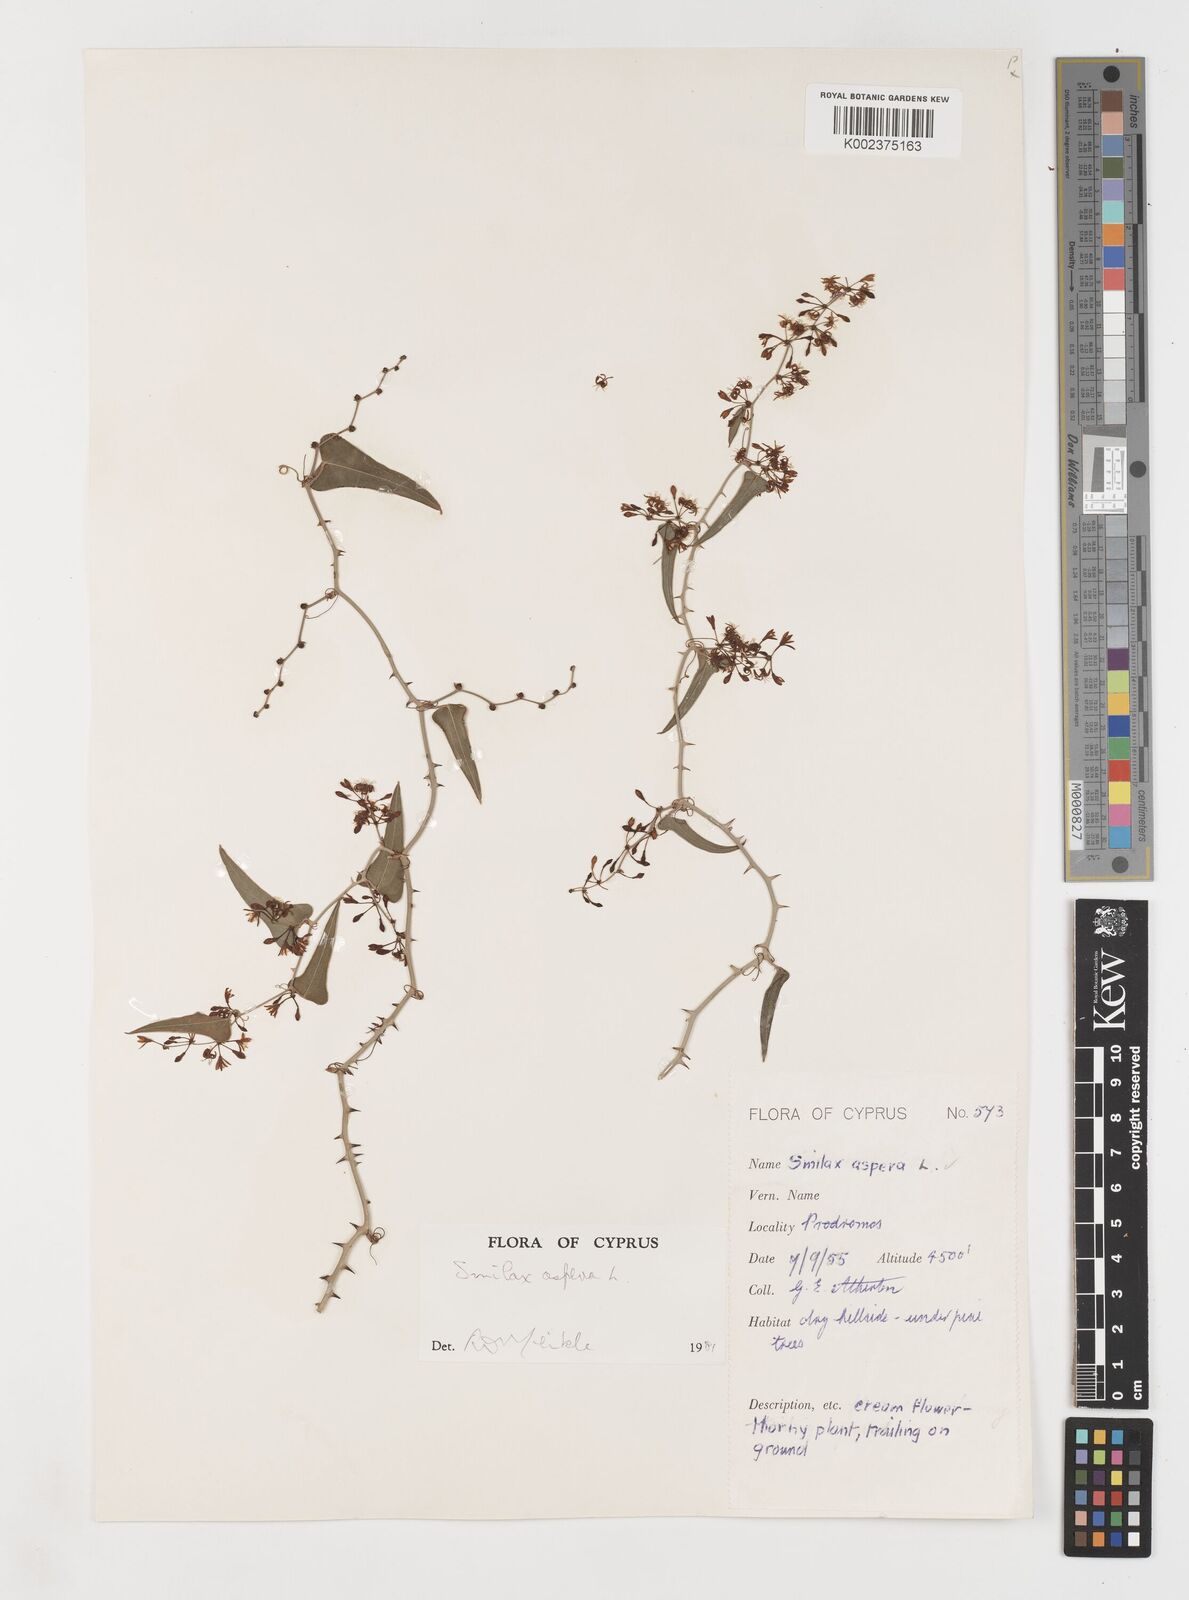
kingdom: Plantae
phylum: Tracheophyta
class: Liliopsida
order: Liliales
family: Smilacaceae
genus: Smilax
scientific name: Smilax aspera
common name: Common smilax
